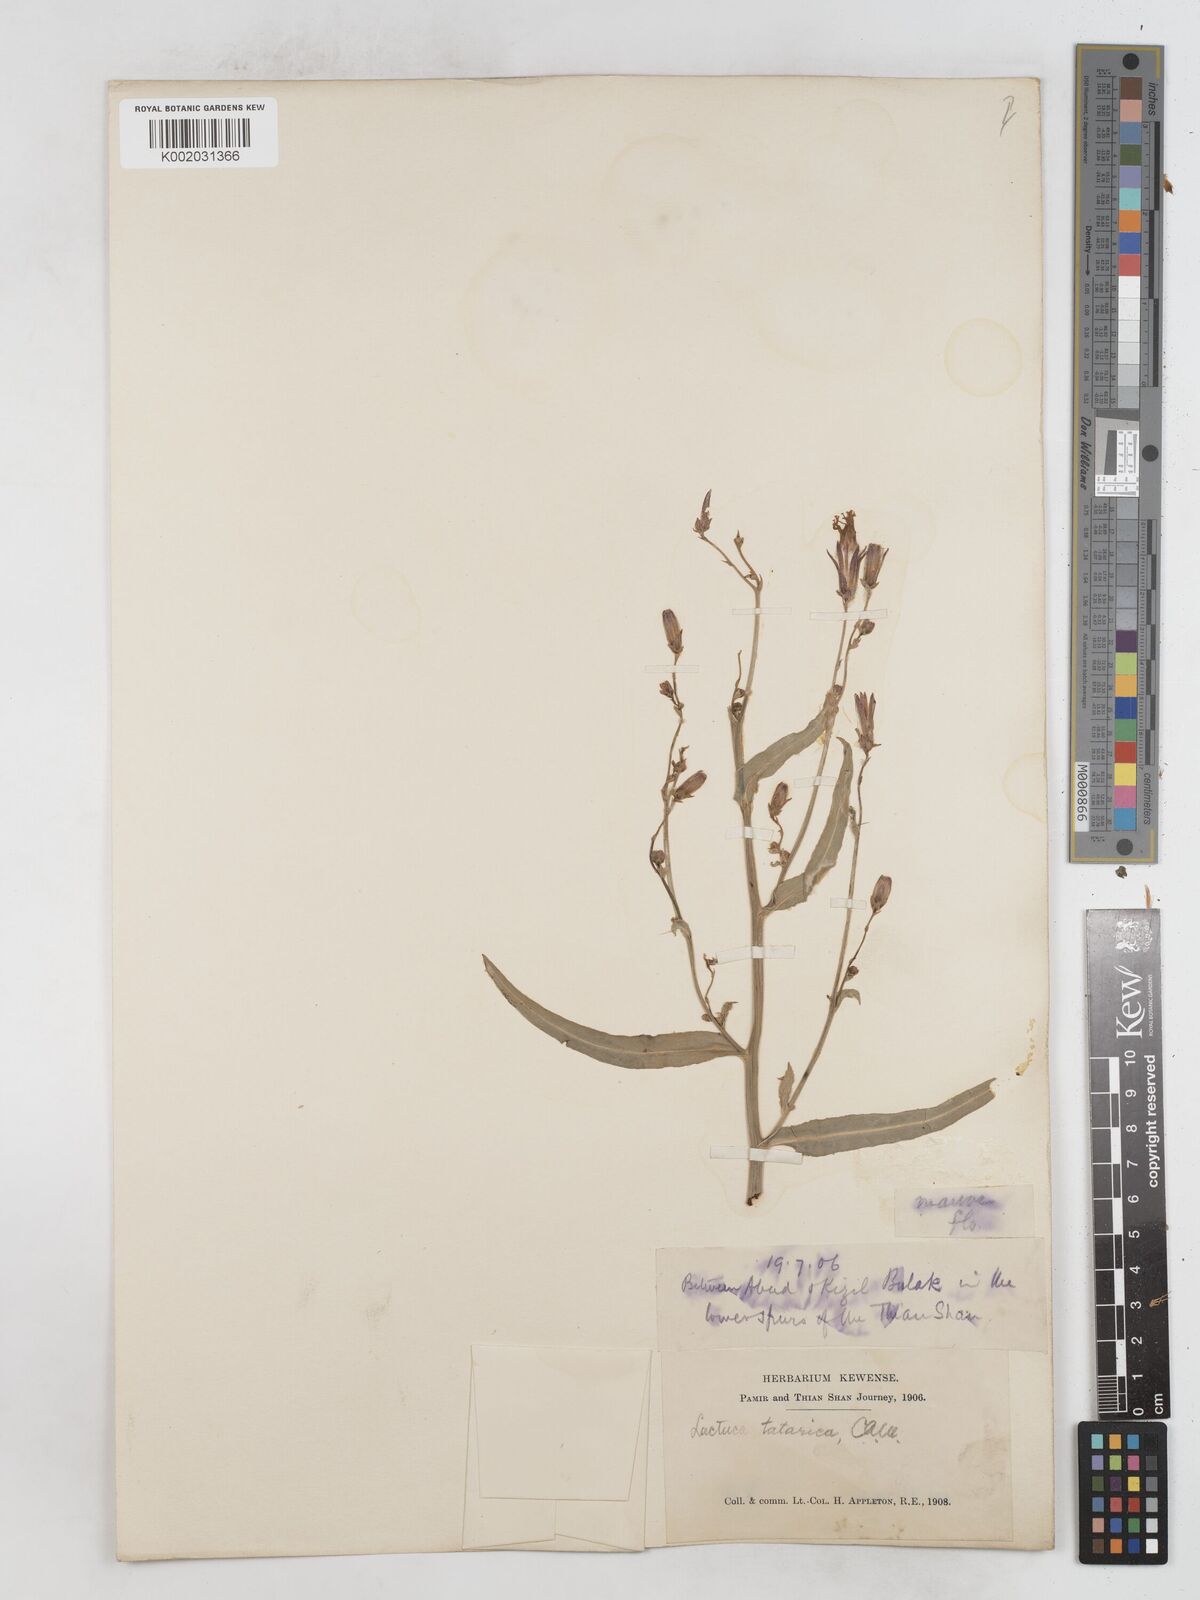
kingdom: Plantae
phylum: Tracheophyta
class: Magnoliopsida
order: Asterales
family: Asteraceae
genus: Lactuca
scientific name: Lactuca tatarica
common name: Blue lettuce
